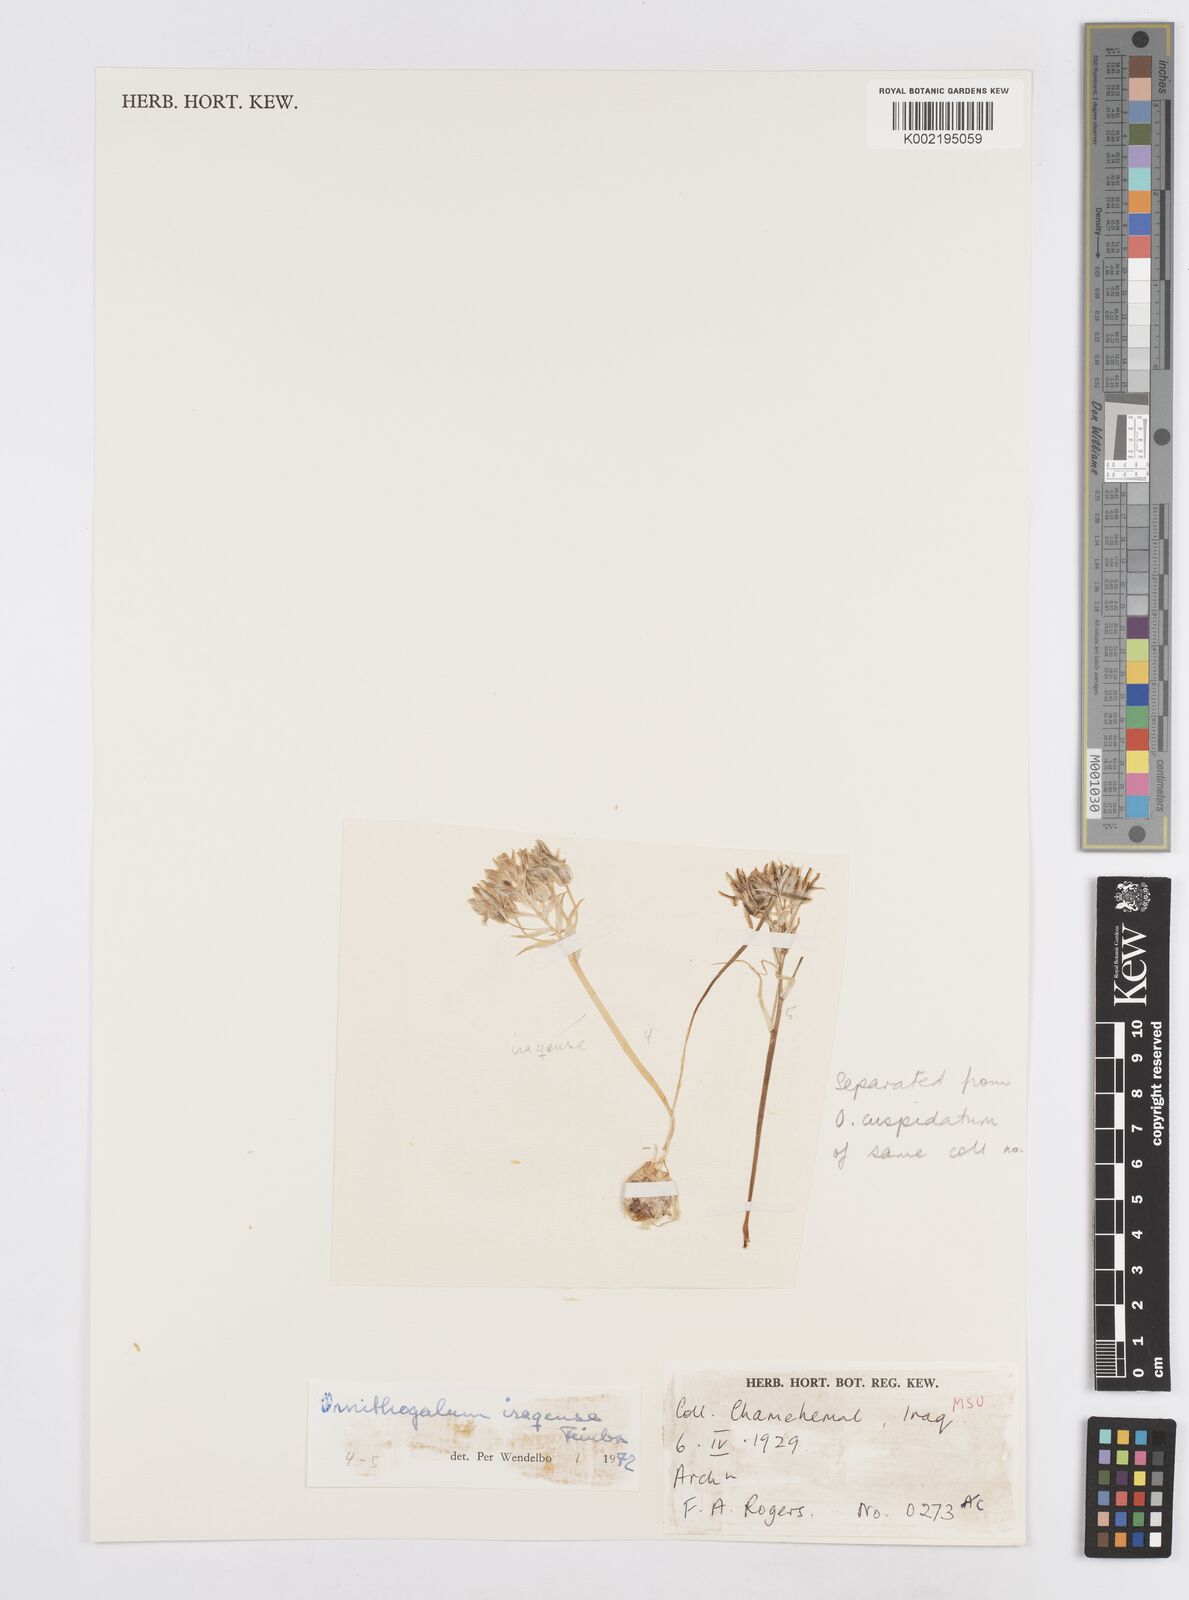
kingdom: Plantae
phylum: Tracheophyta
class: Liliopsida
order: Asparagales
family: Asparagaceae
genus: Ornithogalum
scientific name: Ornithogalum iraqense
